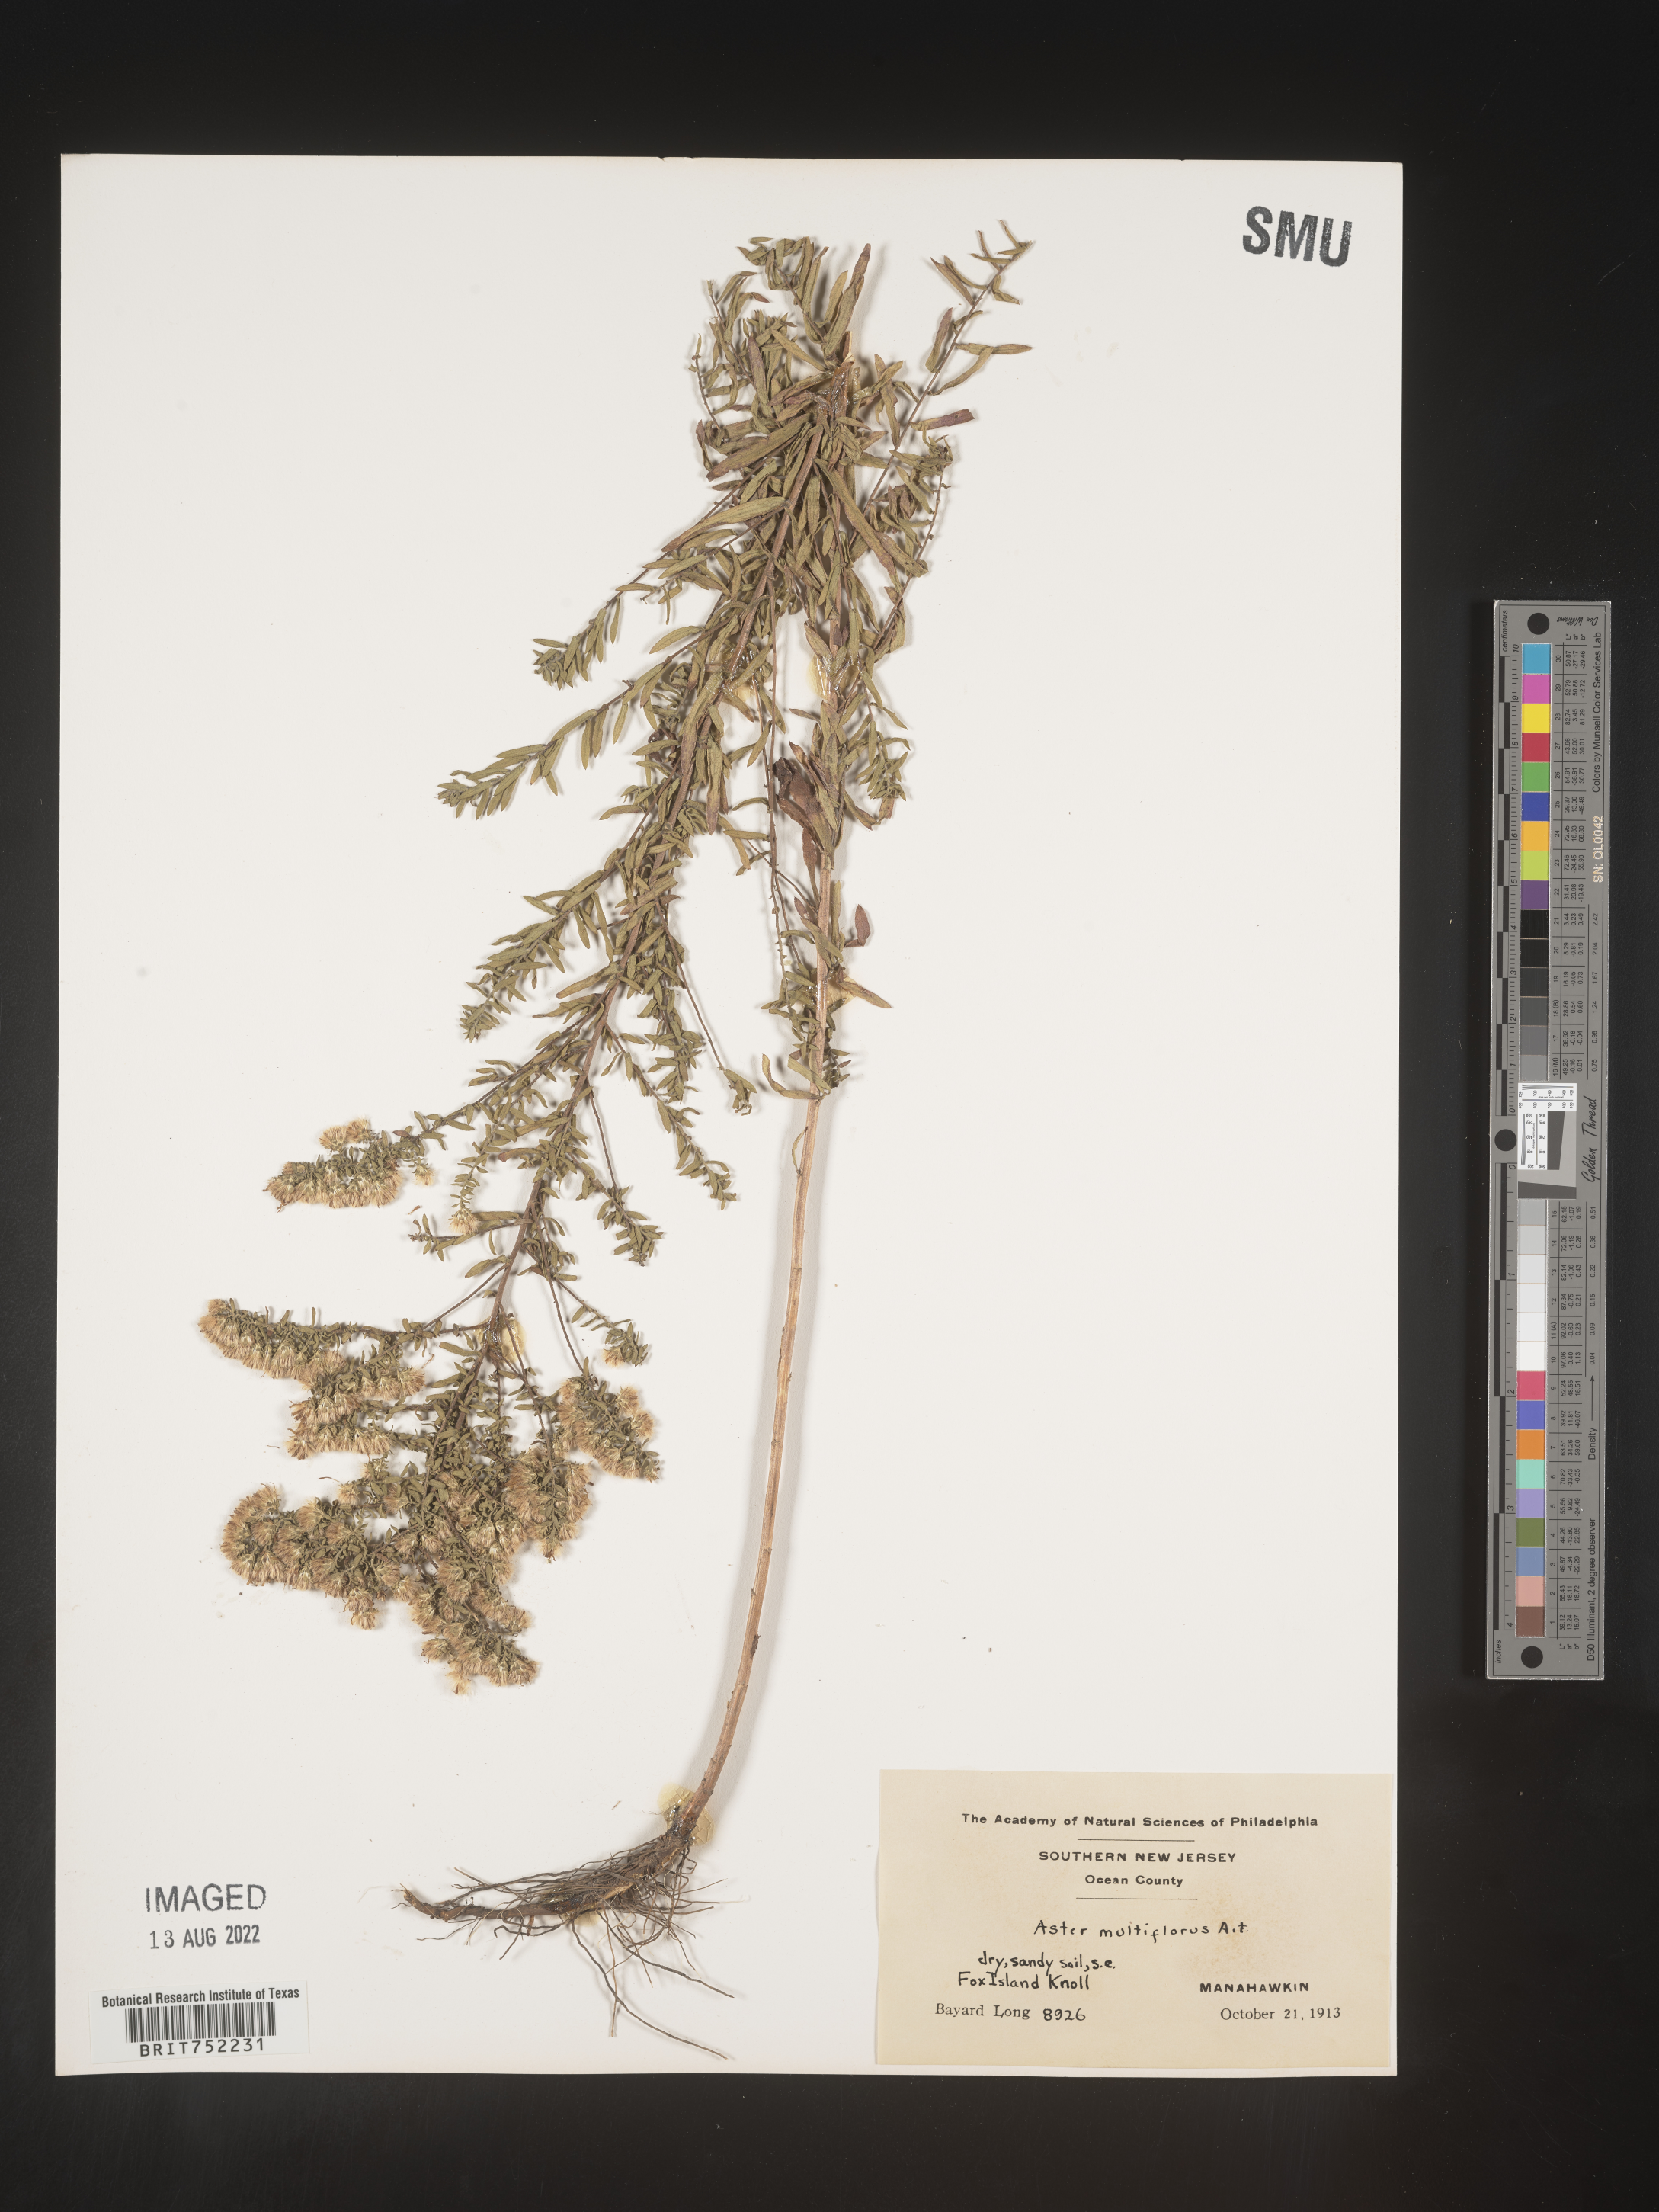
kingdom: Plantae
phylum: Tracheophyta
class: Magnoliopsida
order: Asterales
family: Asteraceae
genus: Symphyotrichum
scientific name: Symphyotrichum ericoides
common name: Heath aster
